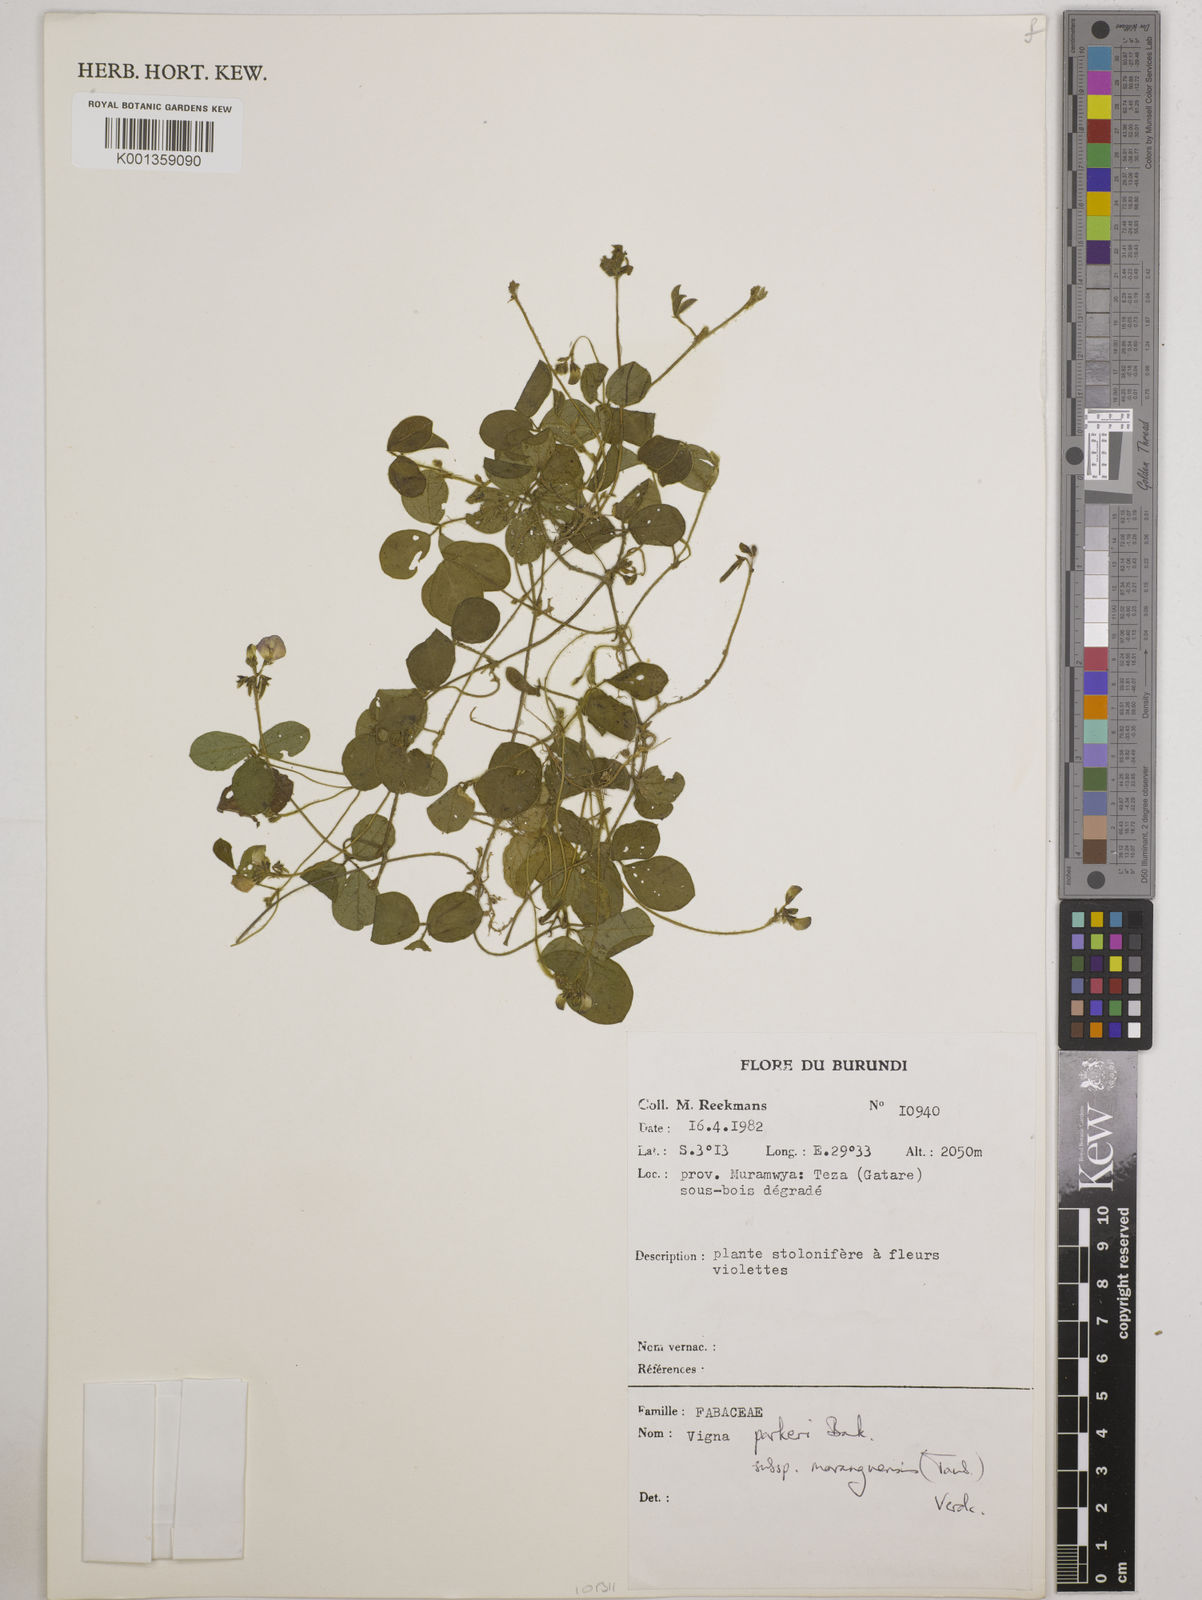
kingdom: Plantae
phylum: Tracheophyta
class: Magnoliopsida
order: Fabales
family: Fabaceae
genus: Vigna
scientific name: Vigna
